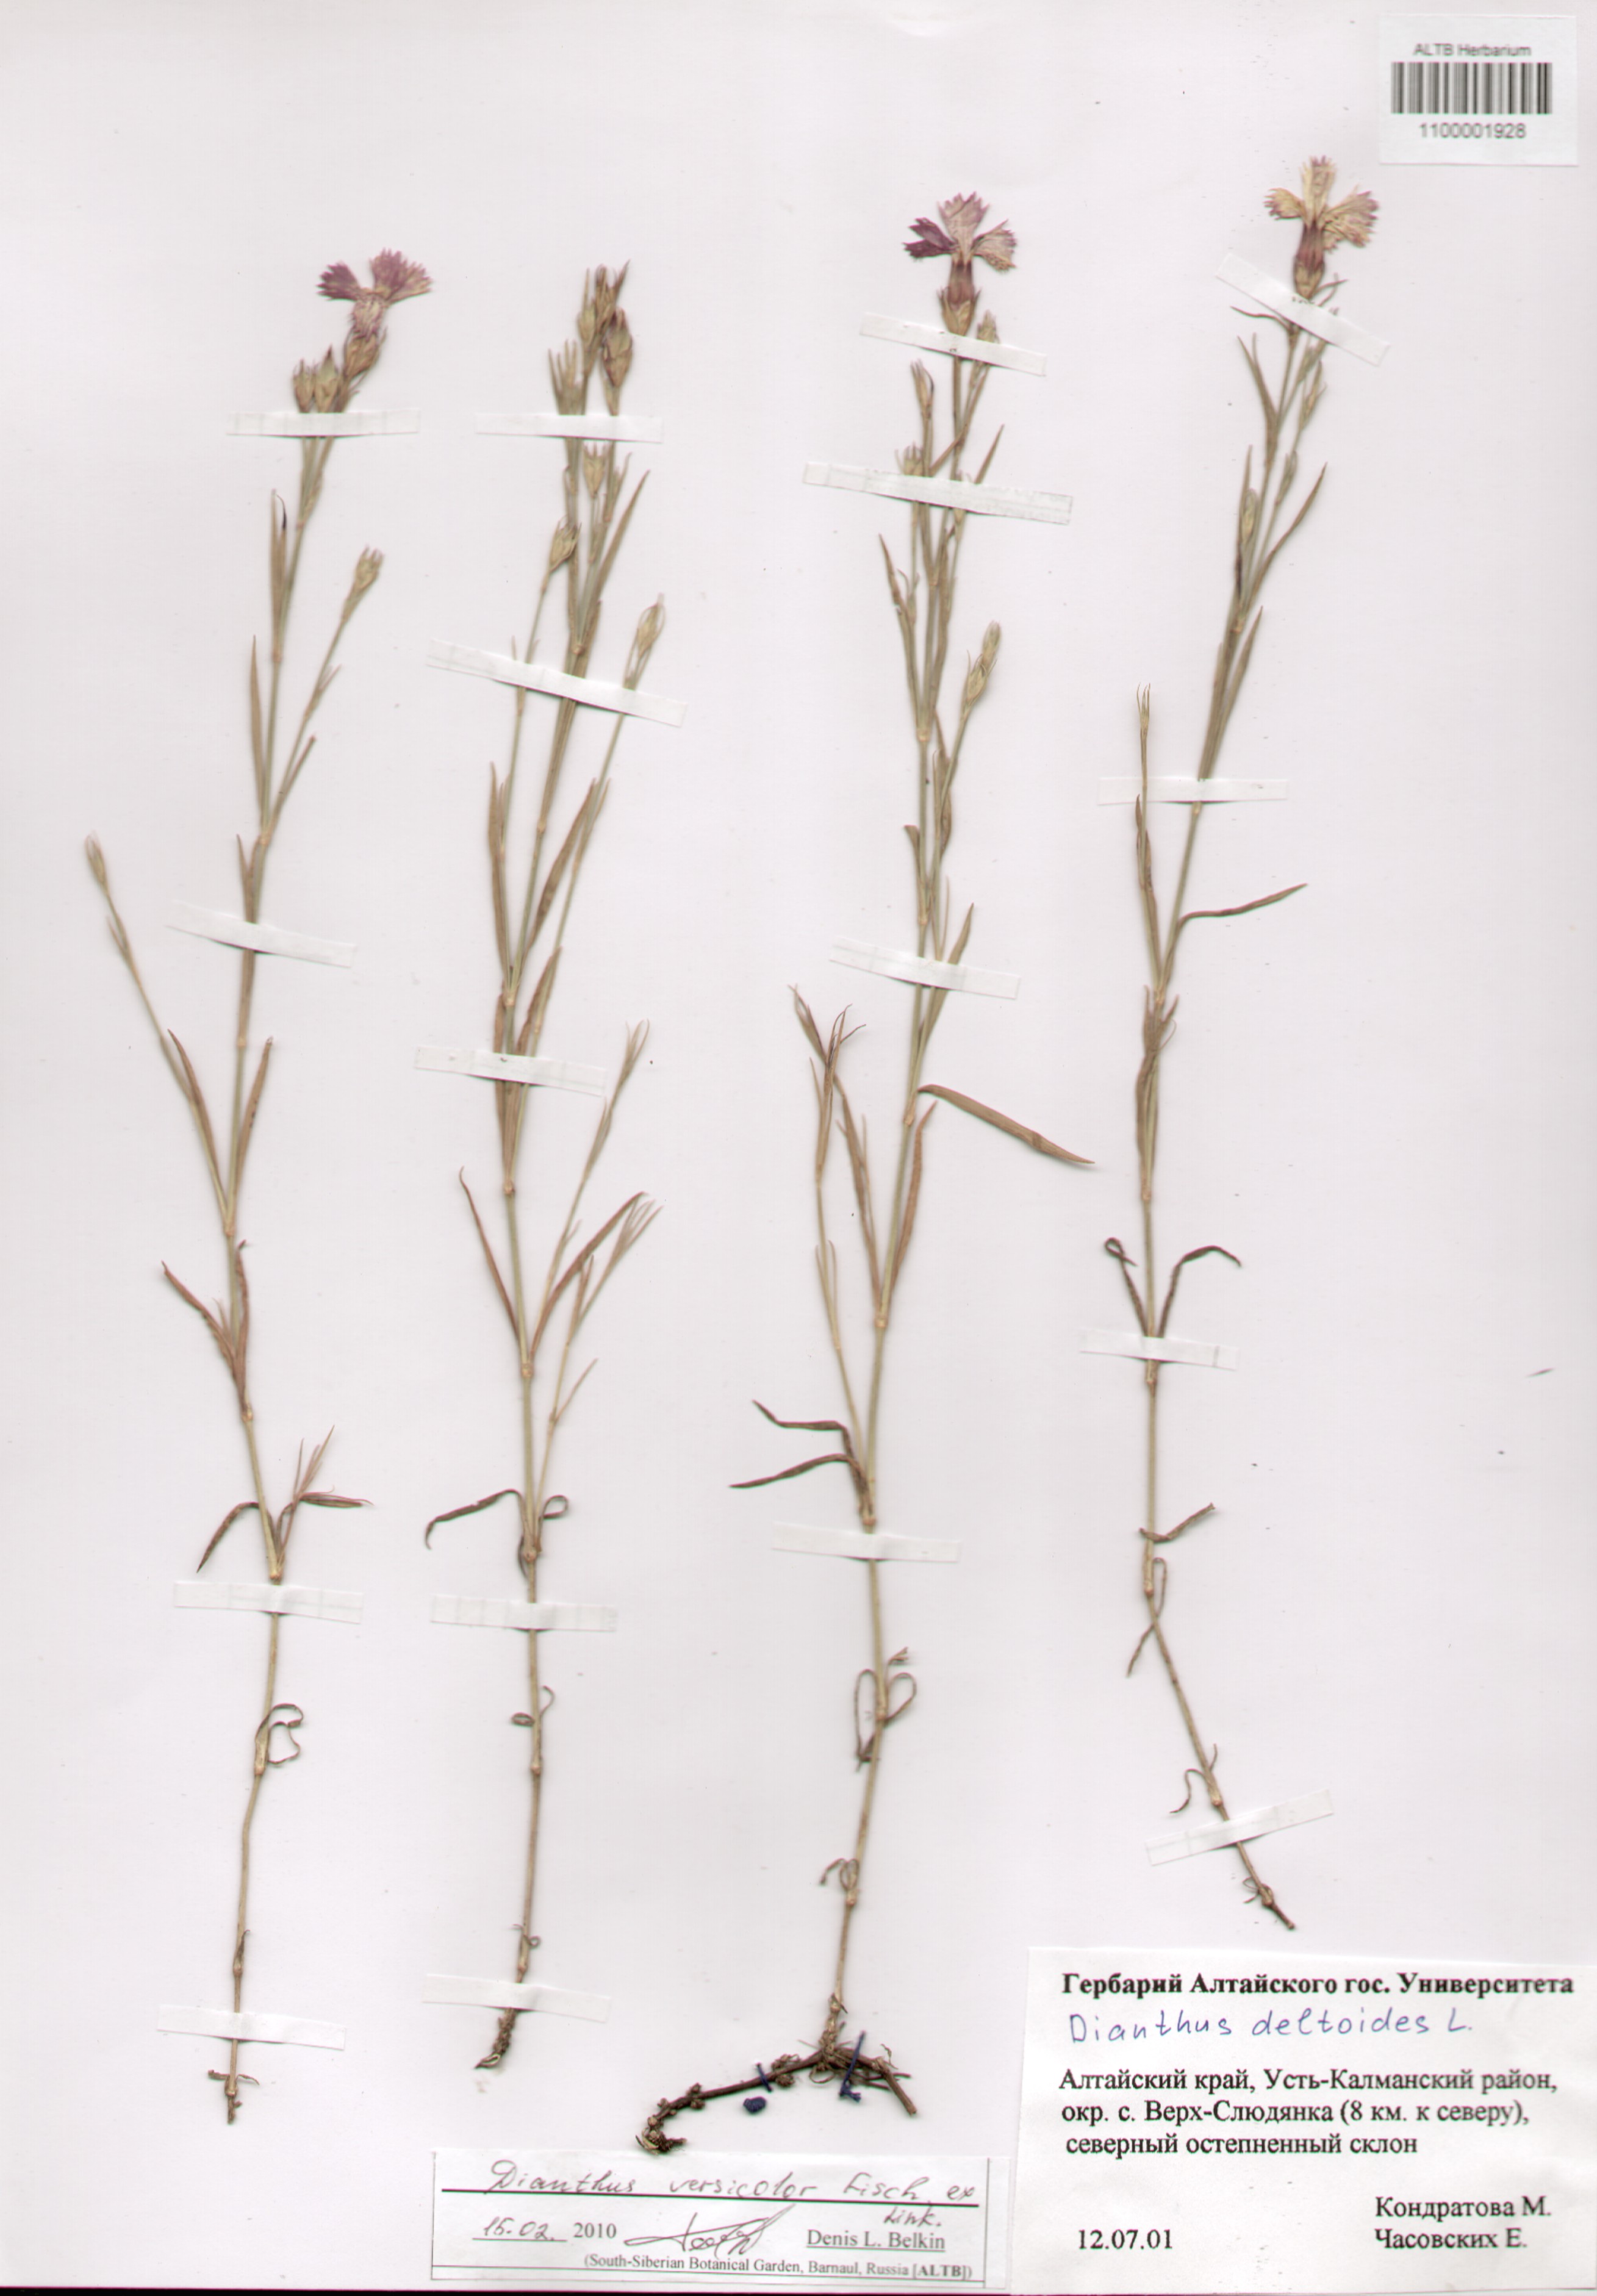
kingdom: Plantae
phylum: Tracheophyta
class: Magnoliopsida
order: Caryophyllales
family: Caryophyllaceae
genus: Dianthus
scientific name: Dianthus chinensis
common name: Rainbow pink
